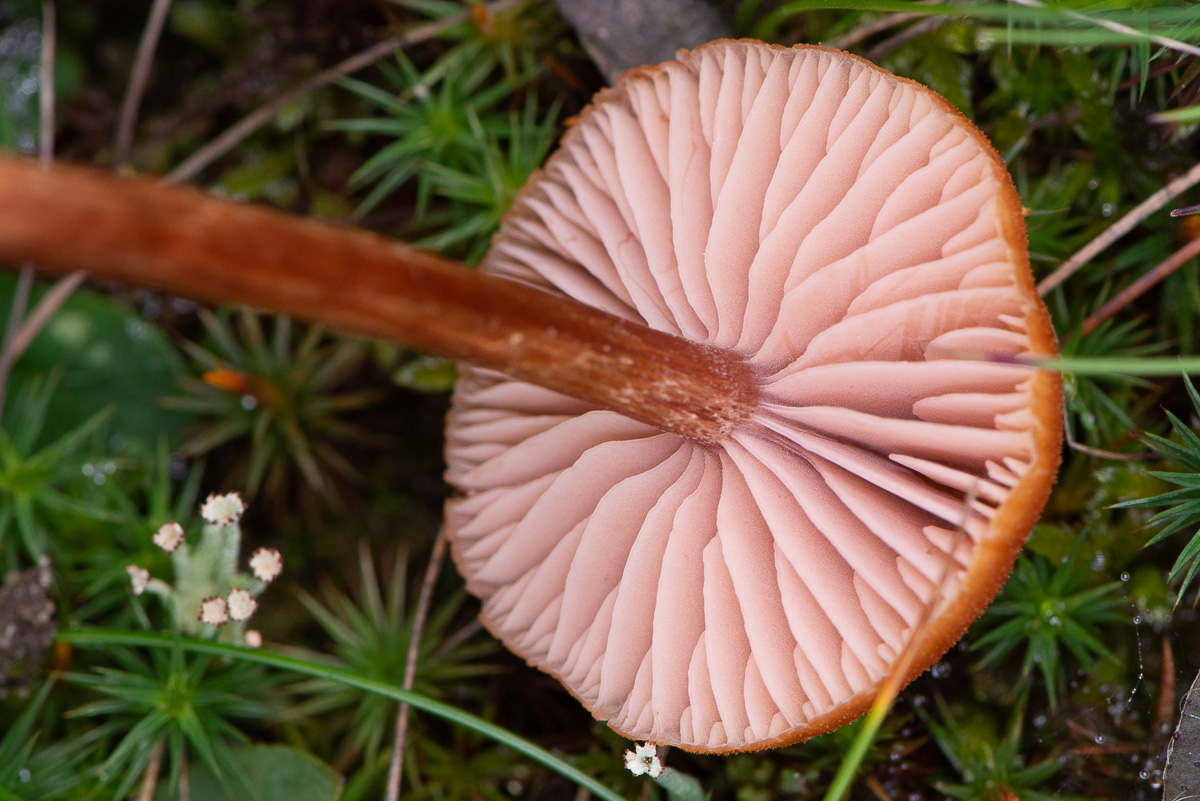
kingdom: Fungi
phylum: Basidiomycota
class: Agaricomycetes
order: Agaricales
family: Hydnangiaceae
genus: Laccaria
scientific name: Laccaria proxima
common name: stor ametysthat
